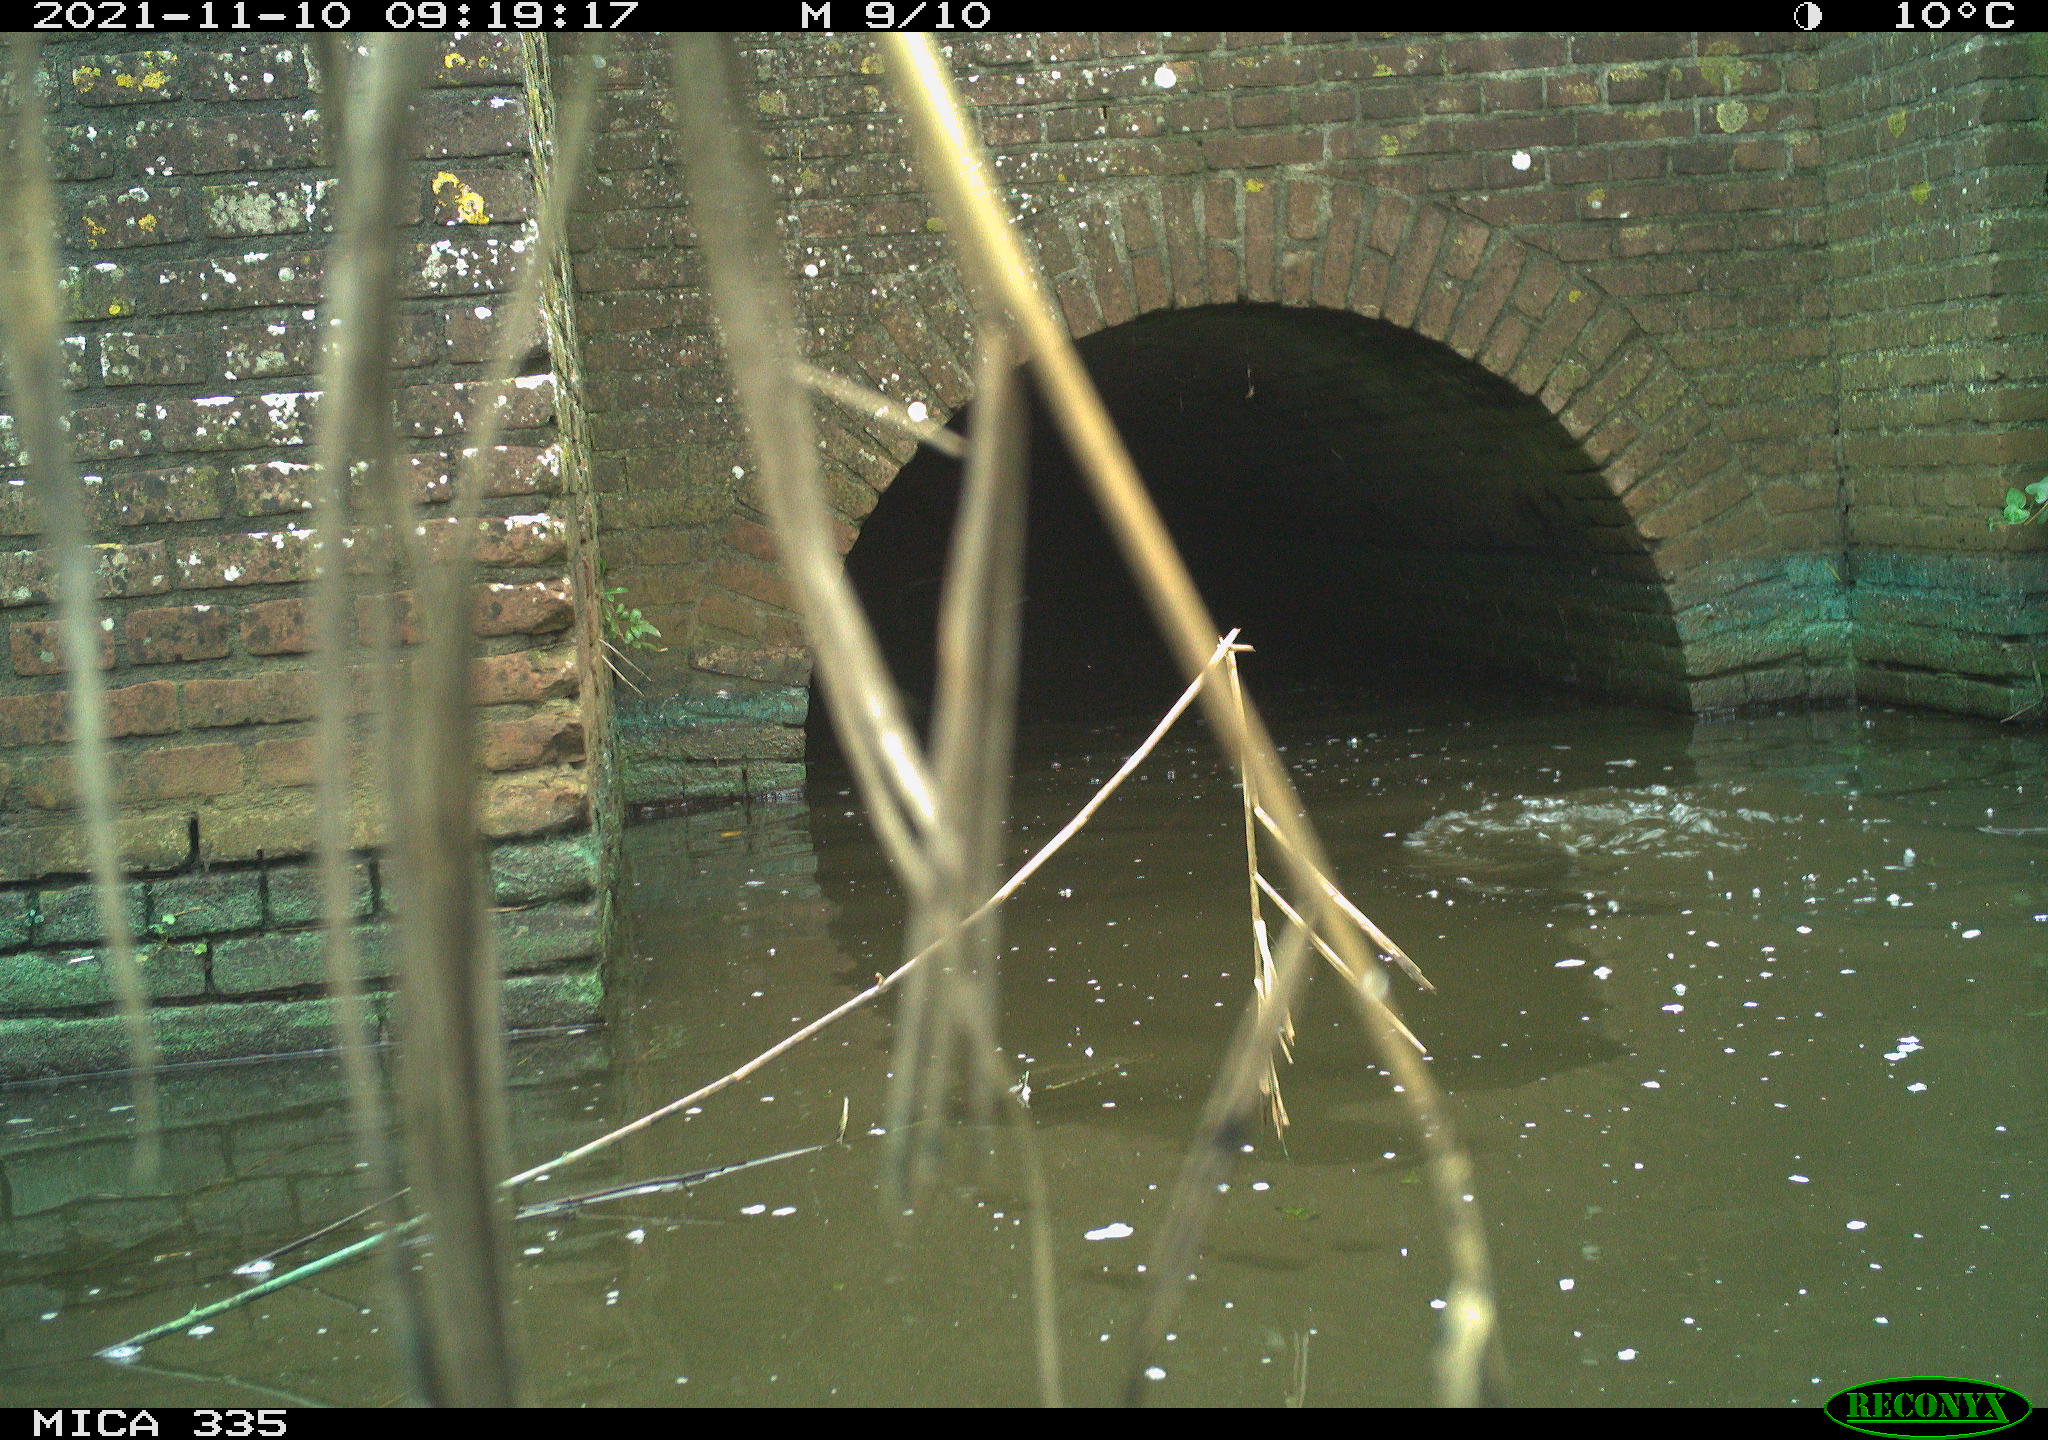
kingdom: Animalia
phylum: Chordata
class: Aves
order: Suliformes
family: Phalacrocoracidae
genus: Phalacrocorax
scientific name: Phalacrocorax carbo
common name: Great cormorant
